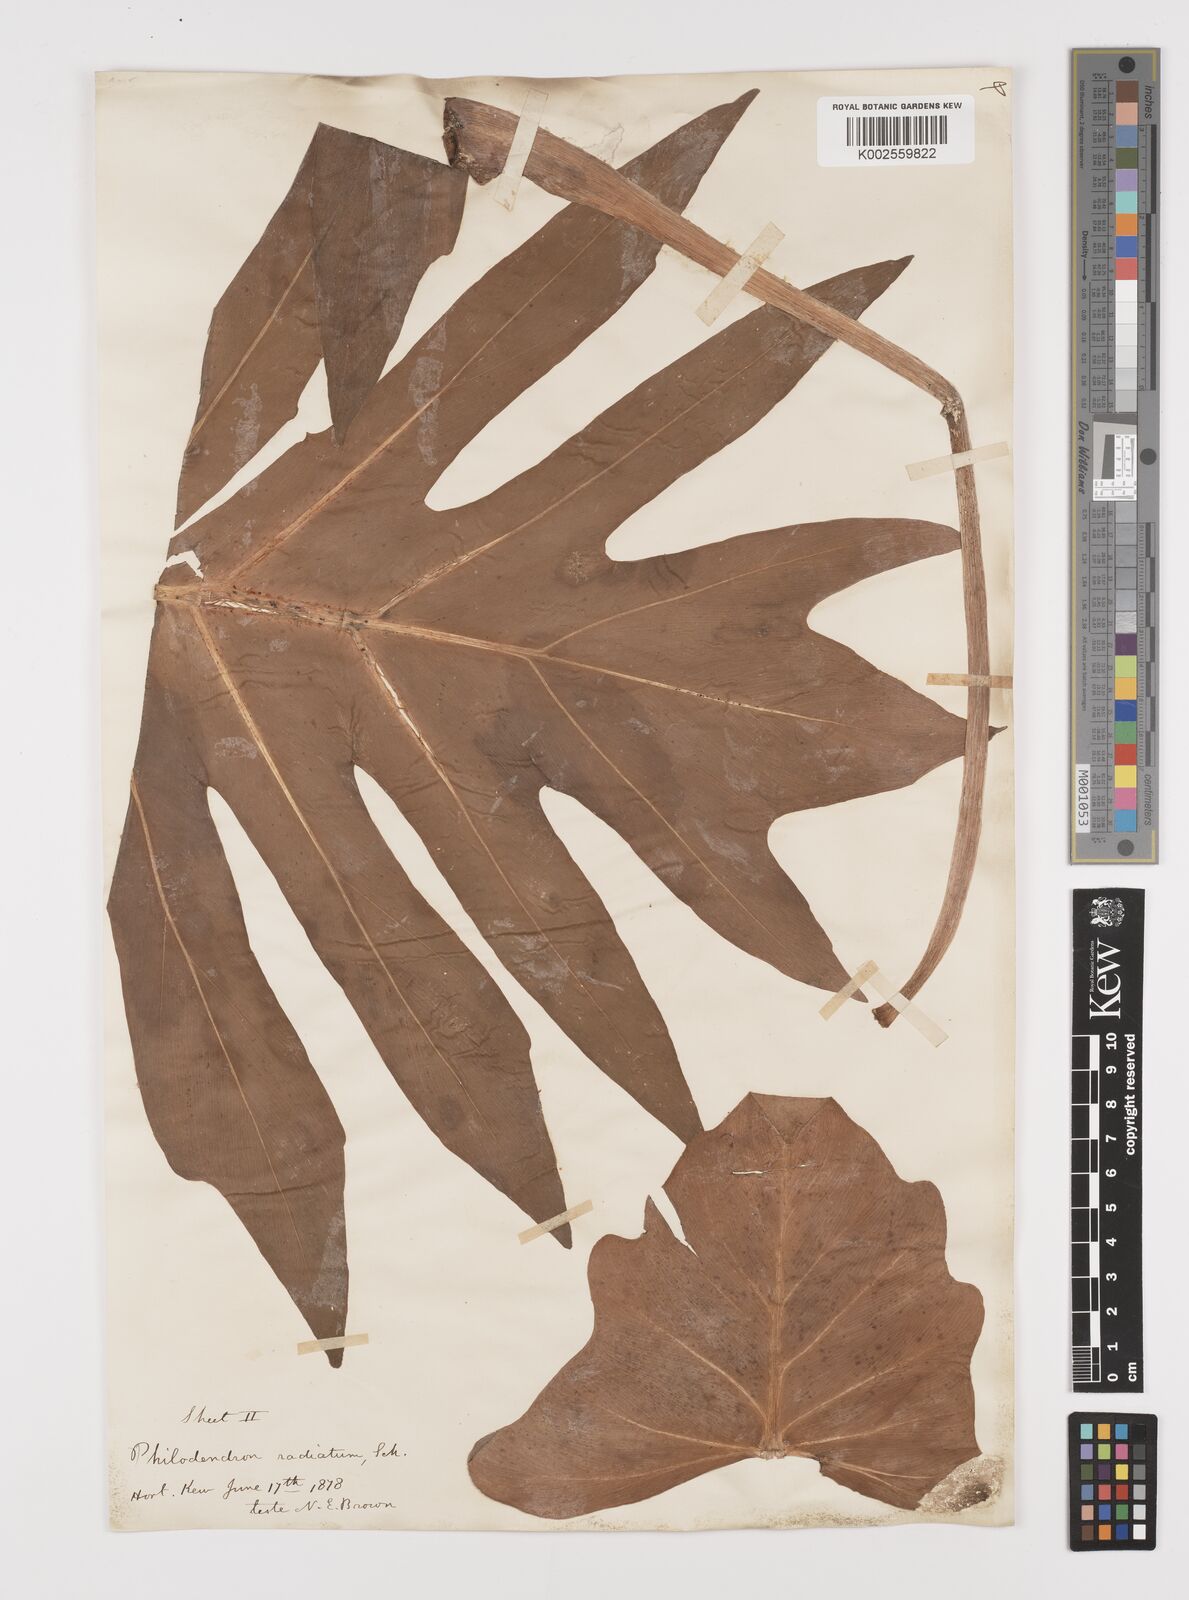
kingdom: Plantae
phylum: Tracheophyta
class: Liliopsida
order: Alismatales
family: Araceae
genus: Philodendron
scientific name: Philodendron radiatum
